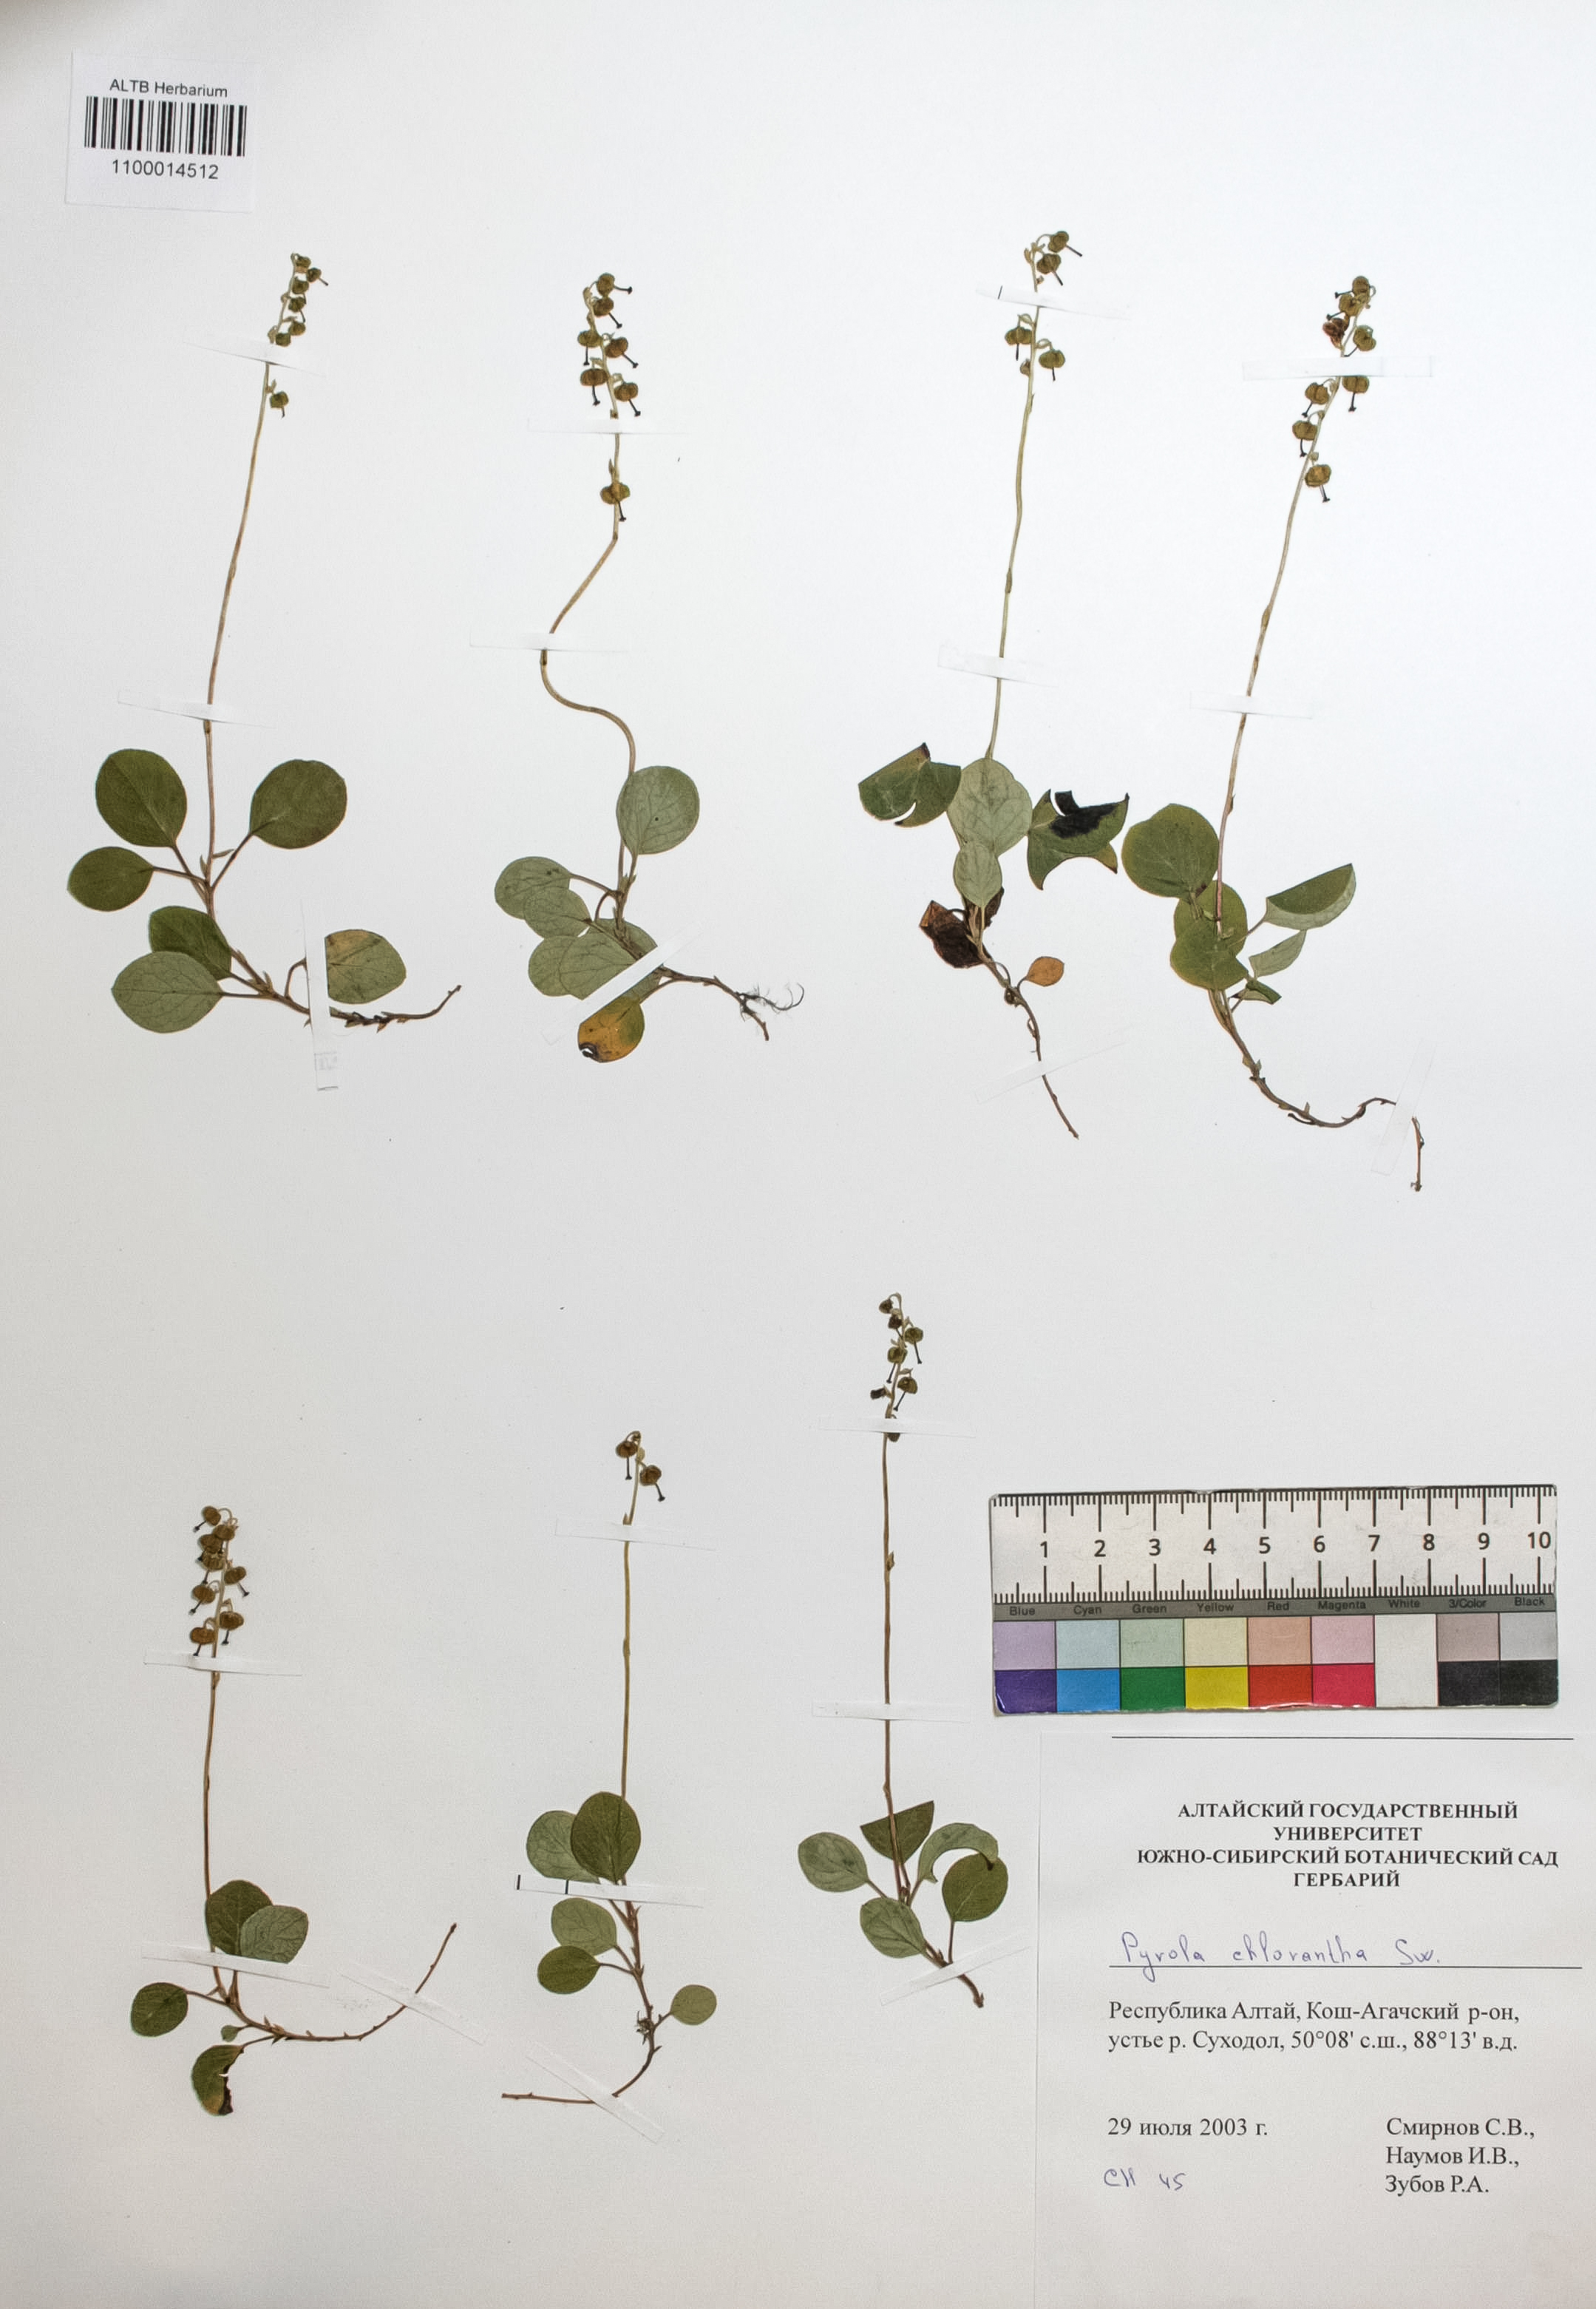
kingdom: Plantae
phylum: Tracheophyta
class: Magnoliopsida
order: Ericales
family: Ericaceae
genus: Pyrola
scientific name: Pyrola chlorantha
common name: Green wintergreen
